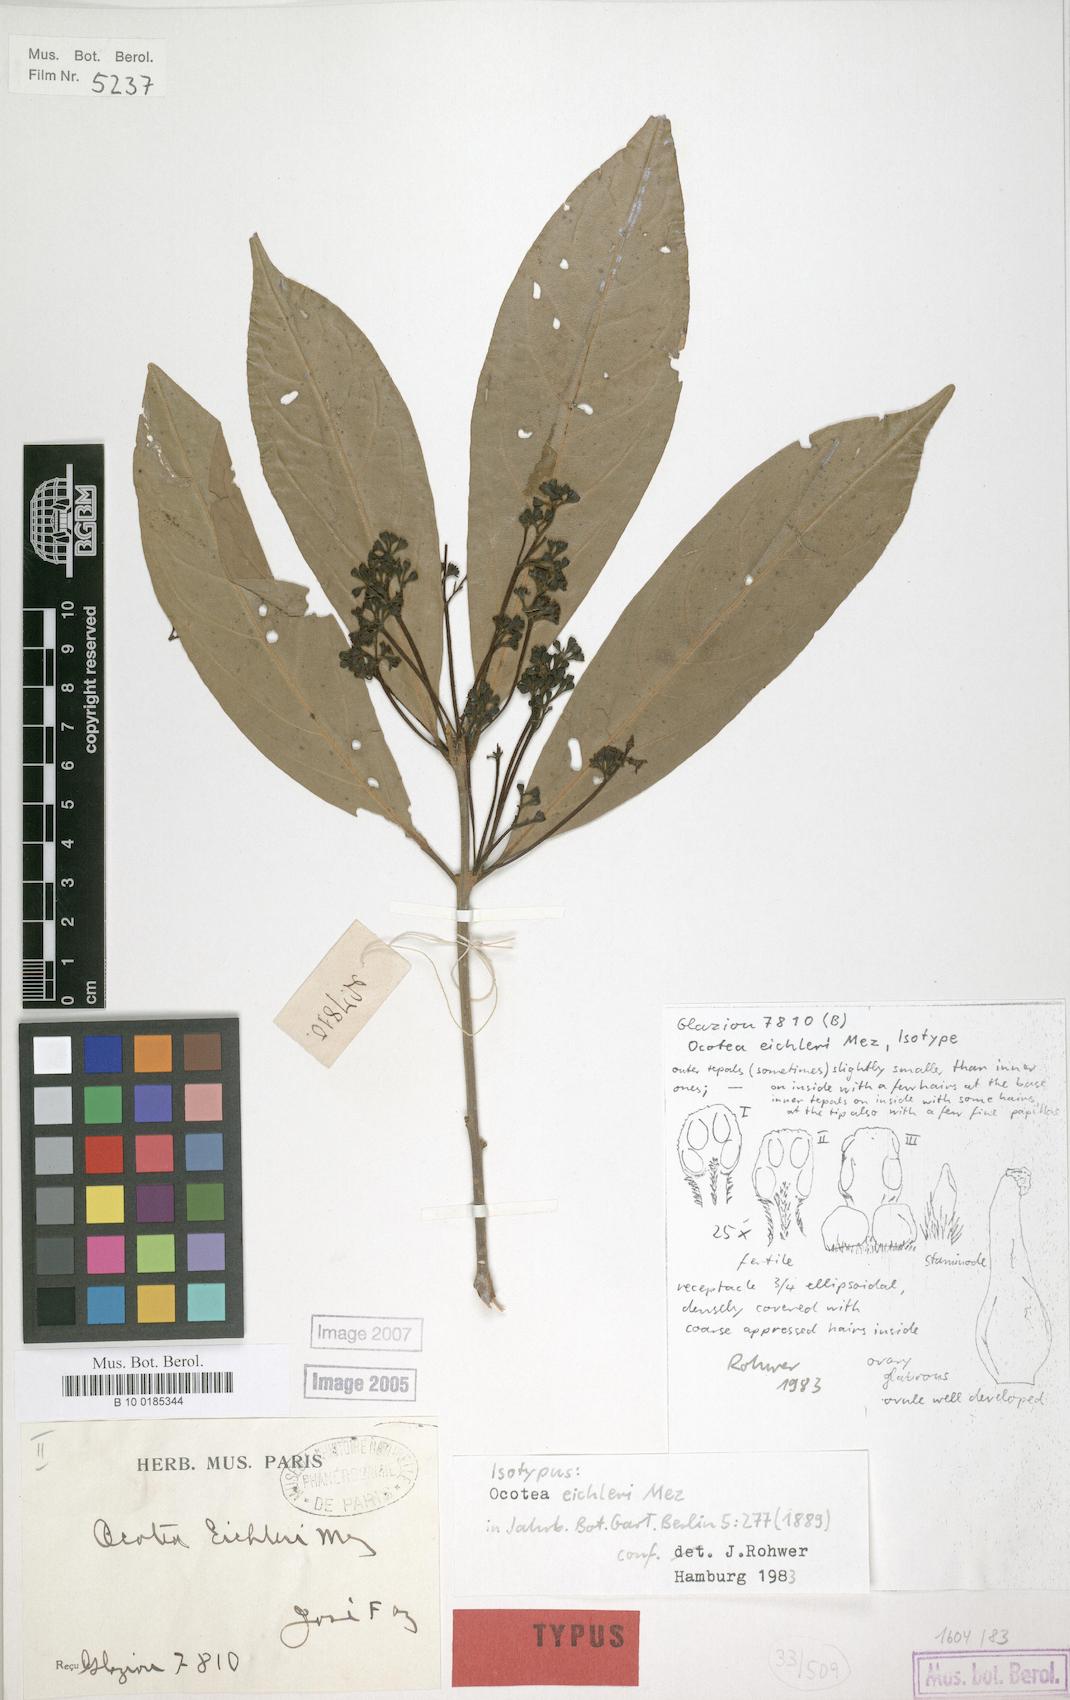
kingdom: Plantae
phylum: Tracheophyta
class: Magnoliopsida
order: Laurales
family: Lauraceae
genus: Ocotea
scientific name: Ocotea beyrichii
